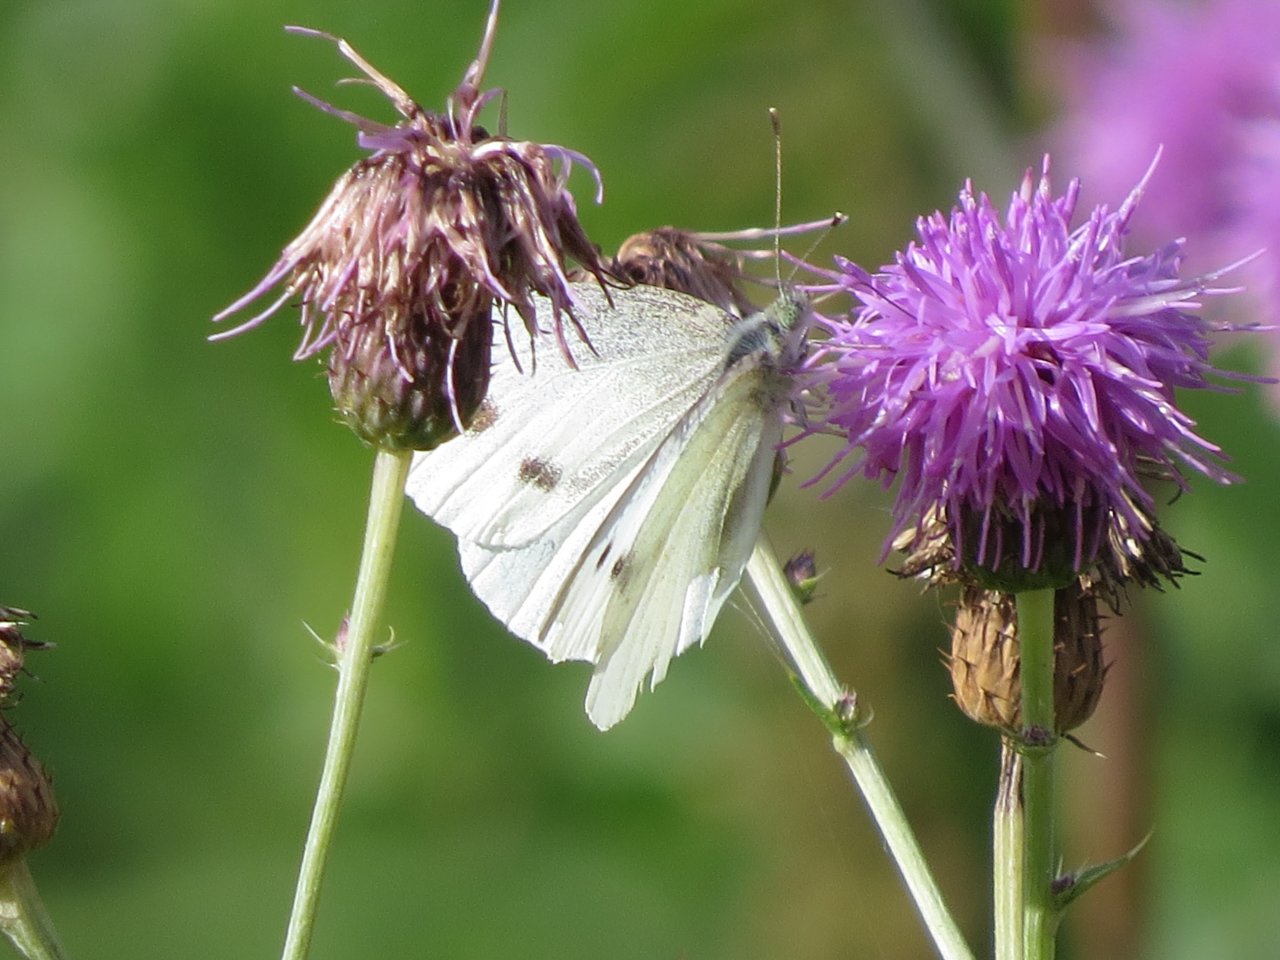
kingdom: Animalia
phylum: Arthropoda
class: Insecta
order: Lepidoptera
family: Pieridae
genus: Pieris
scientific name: Pieris rapae
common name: Cabbage White
